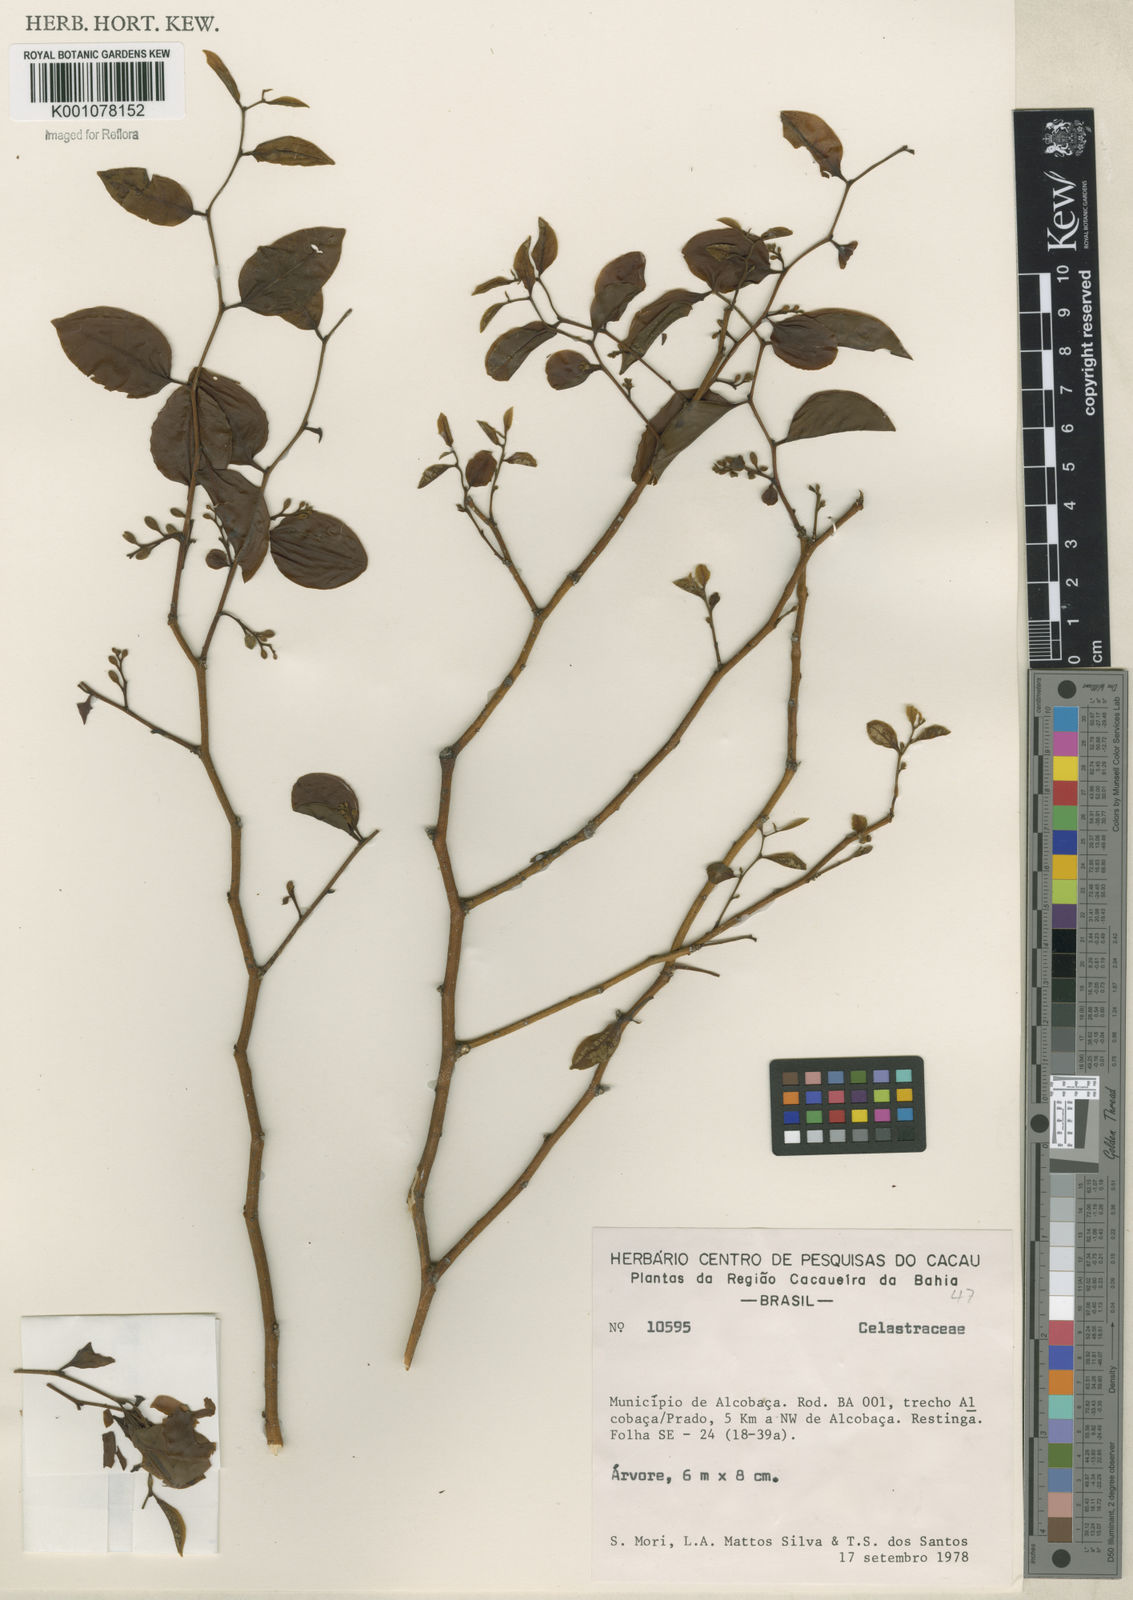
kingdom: Plantae
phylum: Tracheophyta
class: Magnoliopsida
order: Santalales
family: Olacaceae
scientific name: Olacaceae
